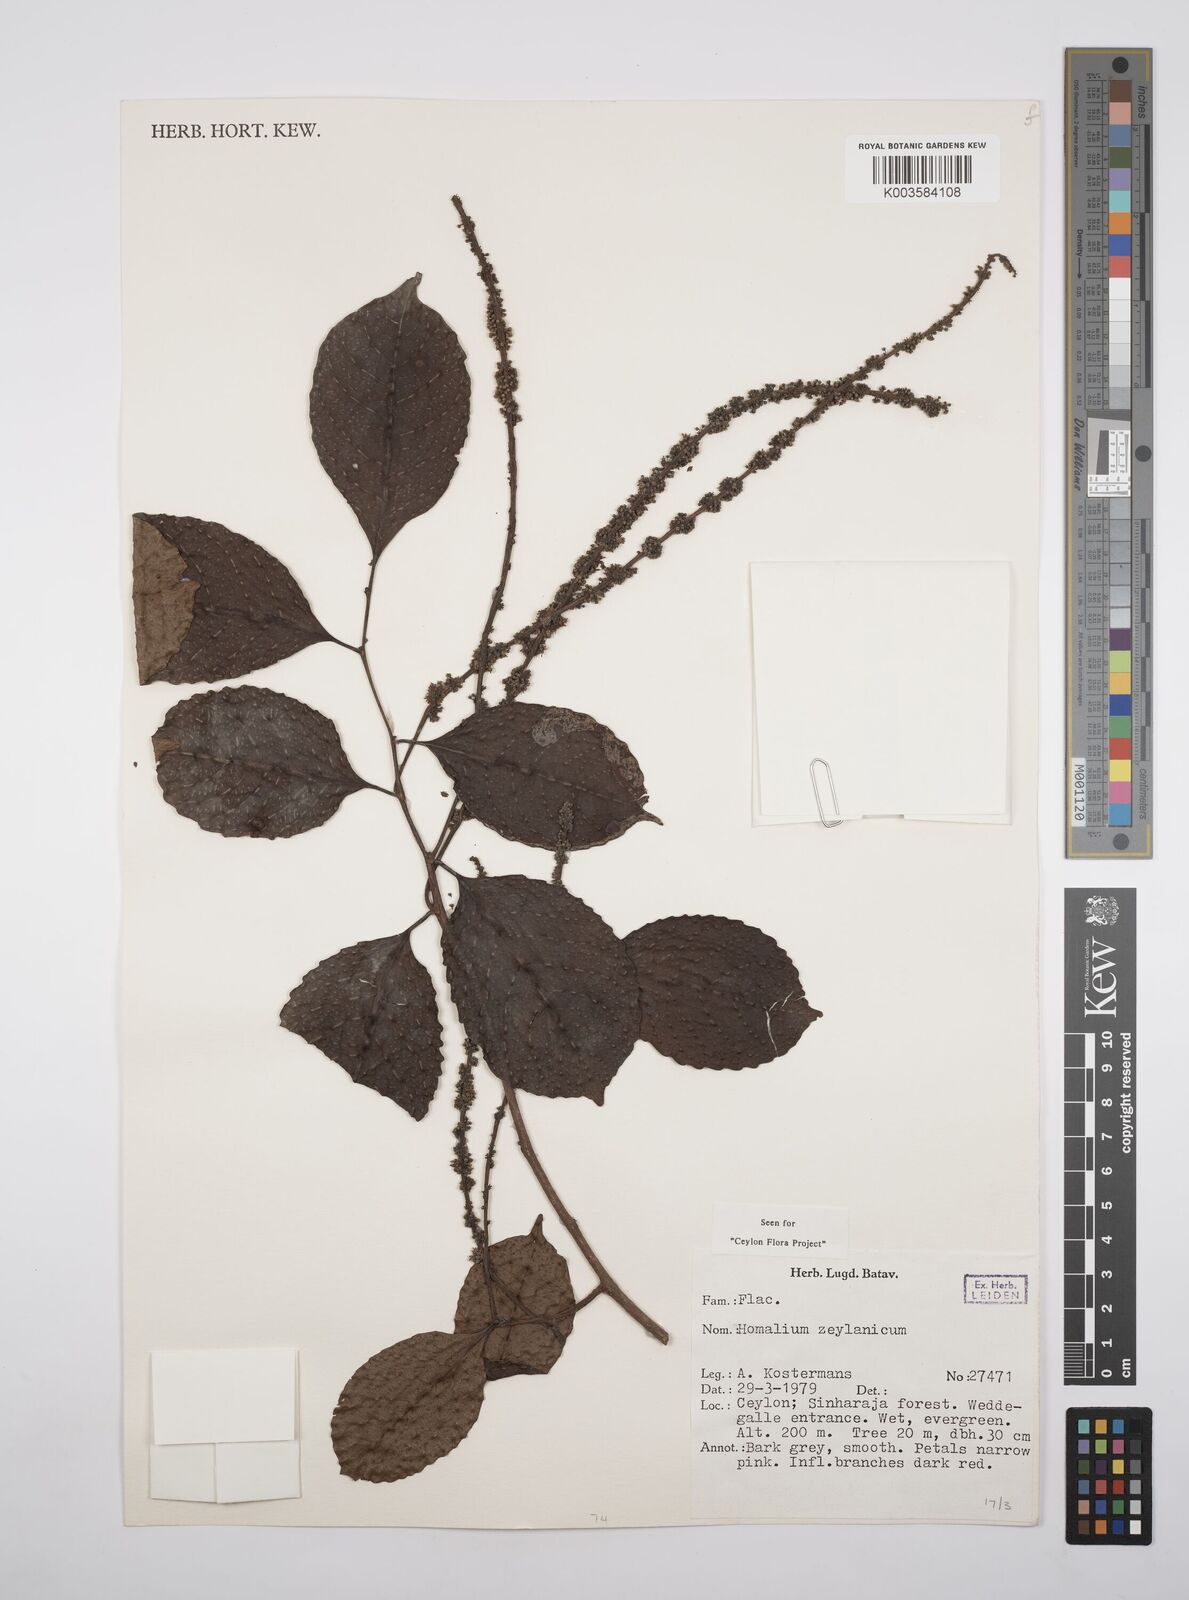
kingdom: Plantae
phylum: Tracheophyta
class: Magnoliopsida
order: Malpighiales
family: Salicaceae
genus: Homalium
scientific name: Homalium ceylanicum
